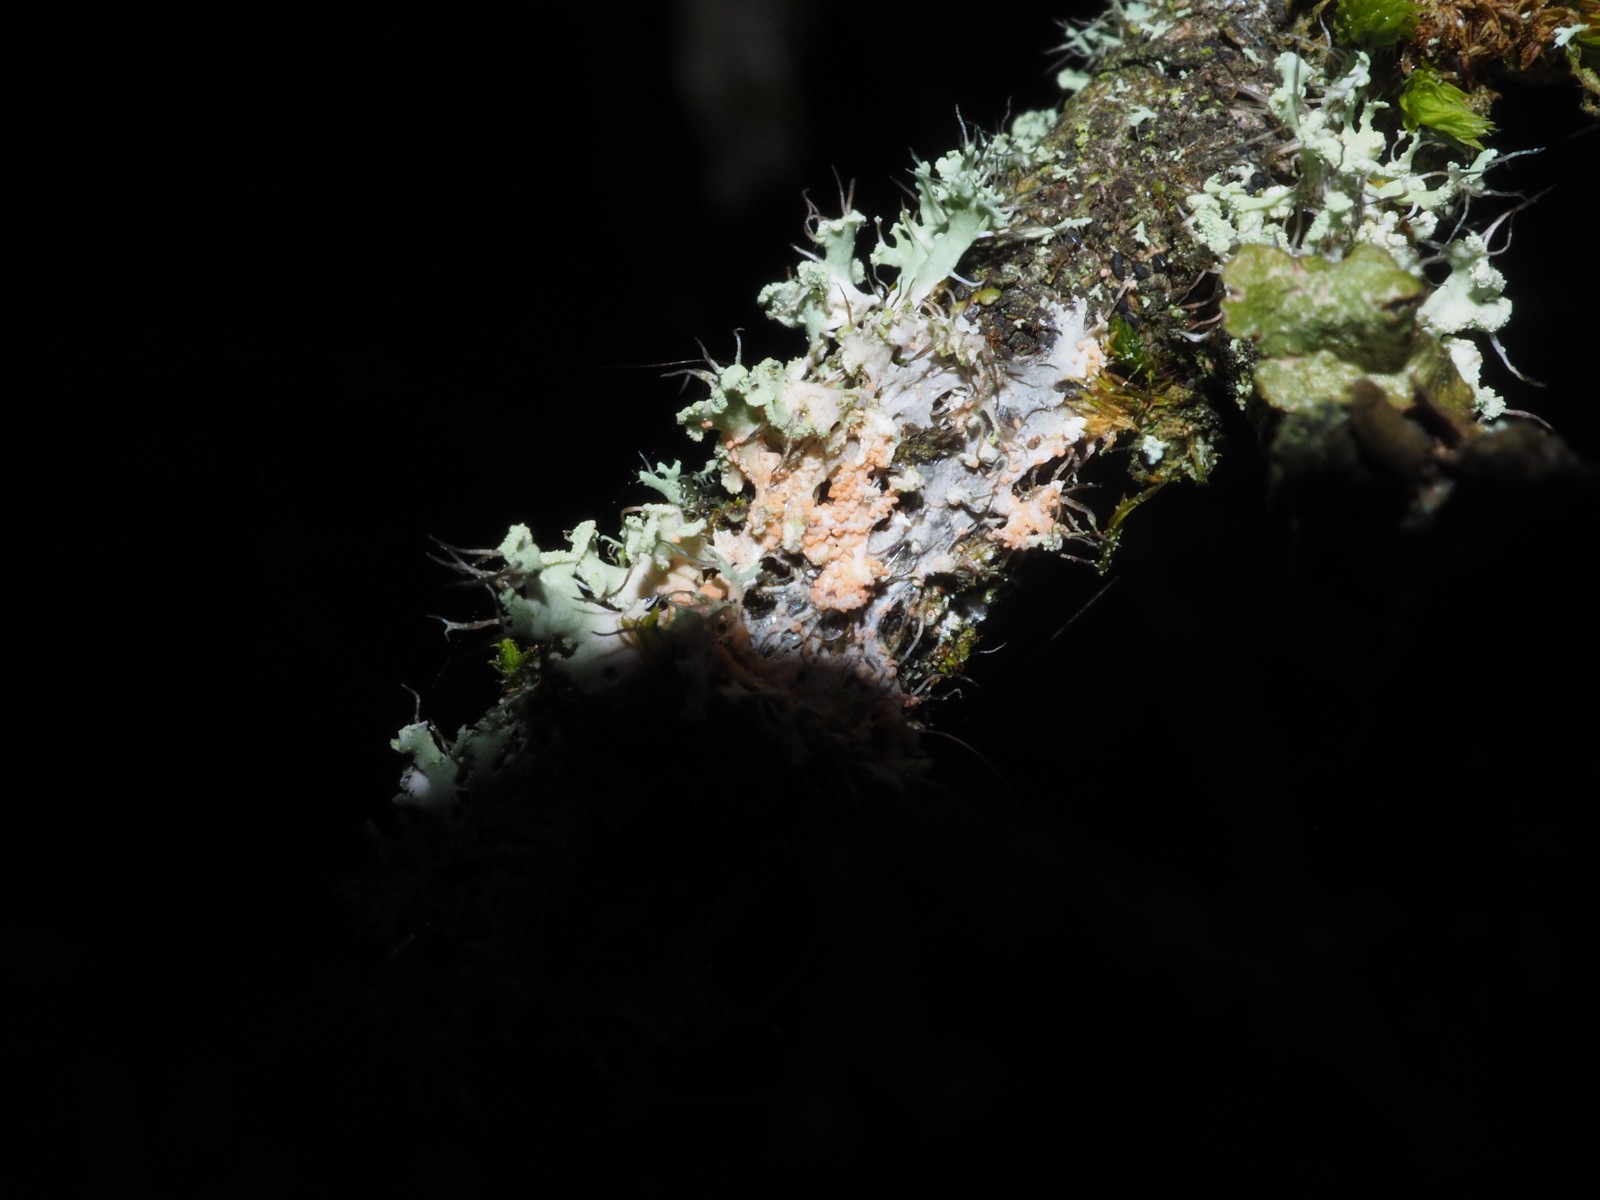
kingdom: Fungi
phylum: Basidiomycota
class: Agaricomycetes
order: Corticiales
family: Corticiaceae
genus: Erythricium
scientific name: Erythricium aurantiacum
